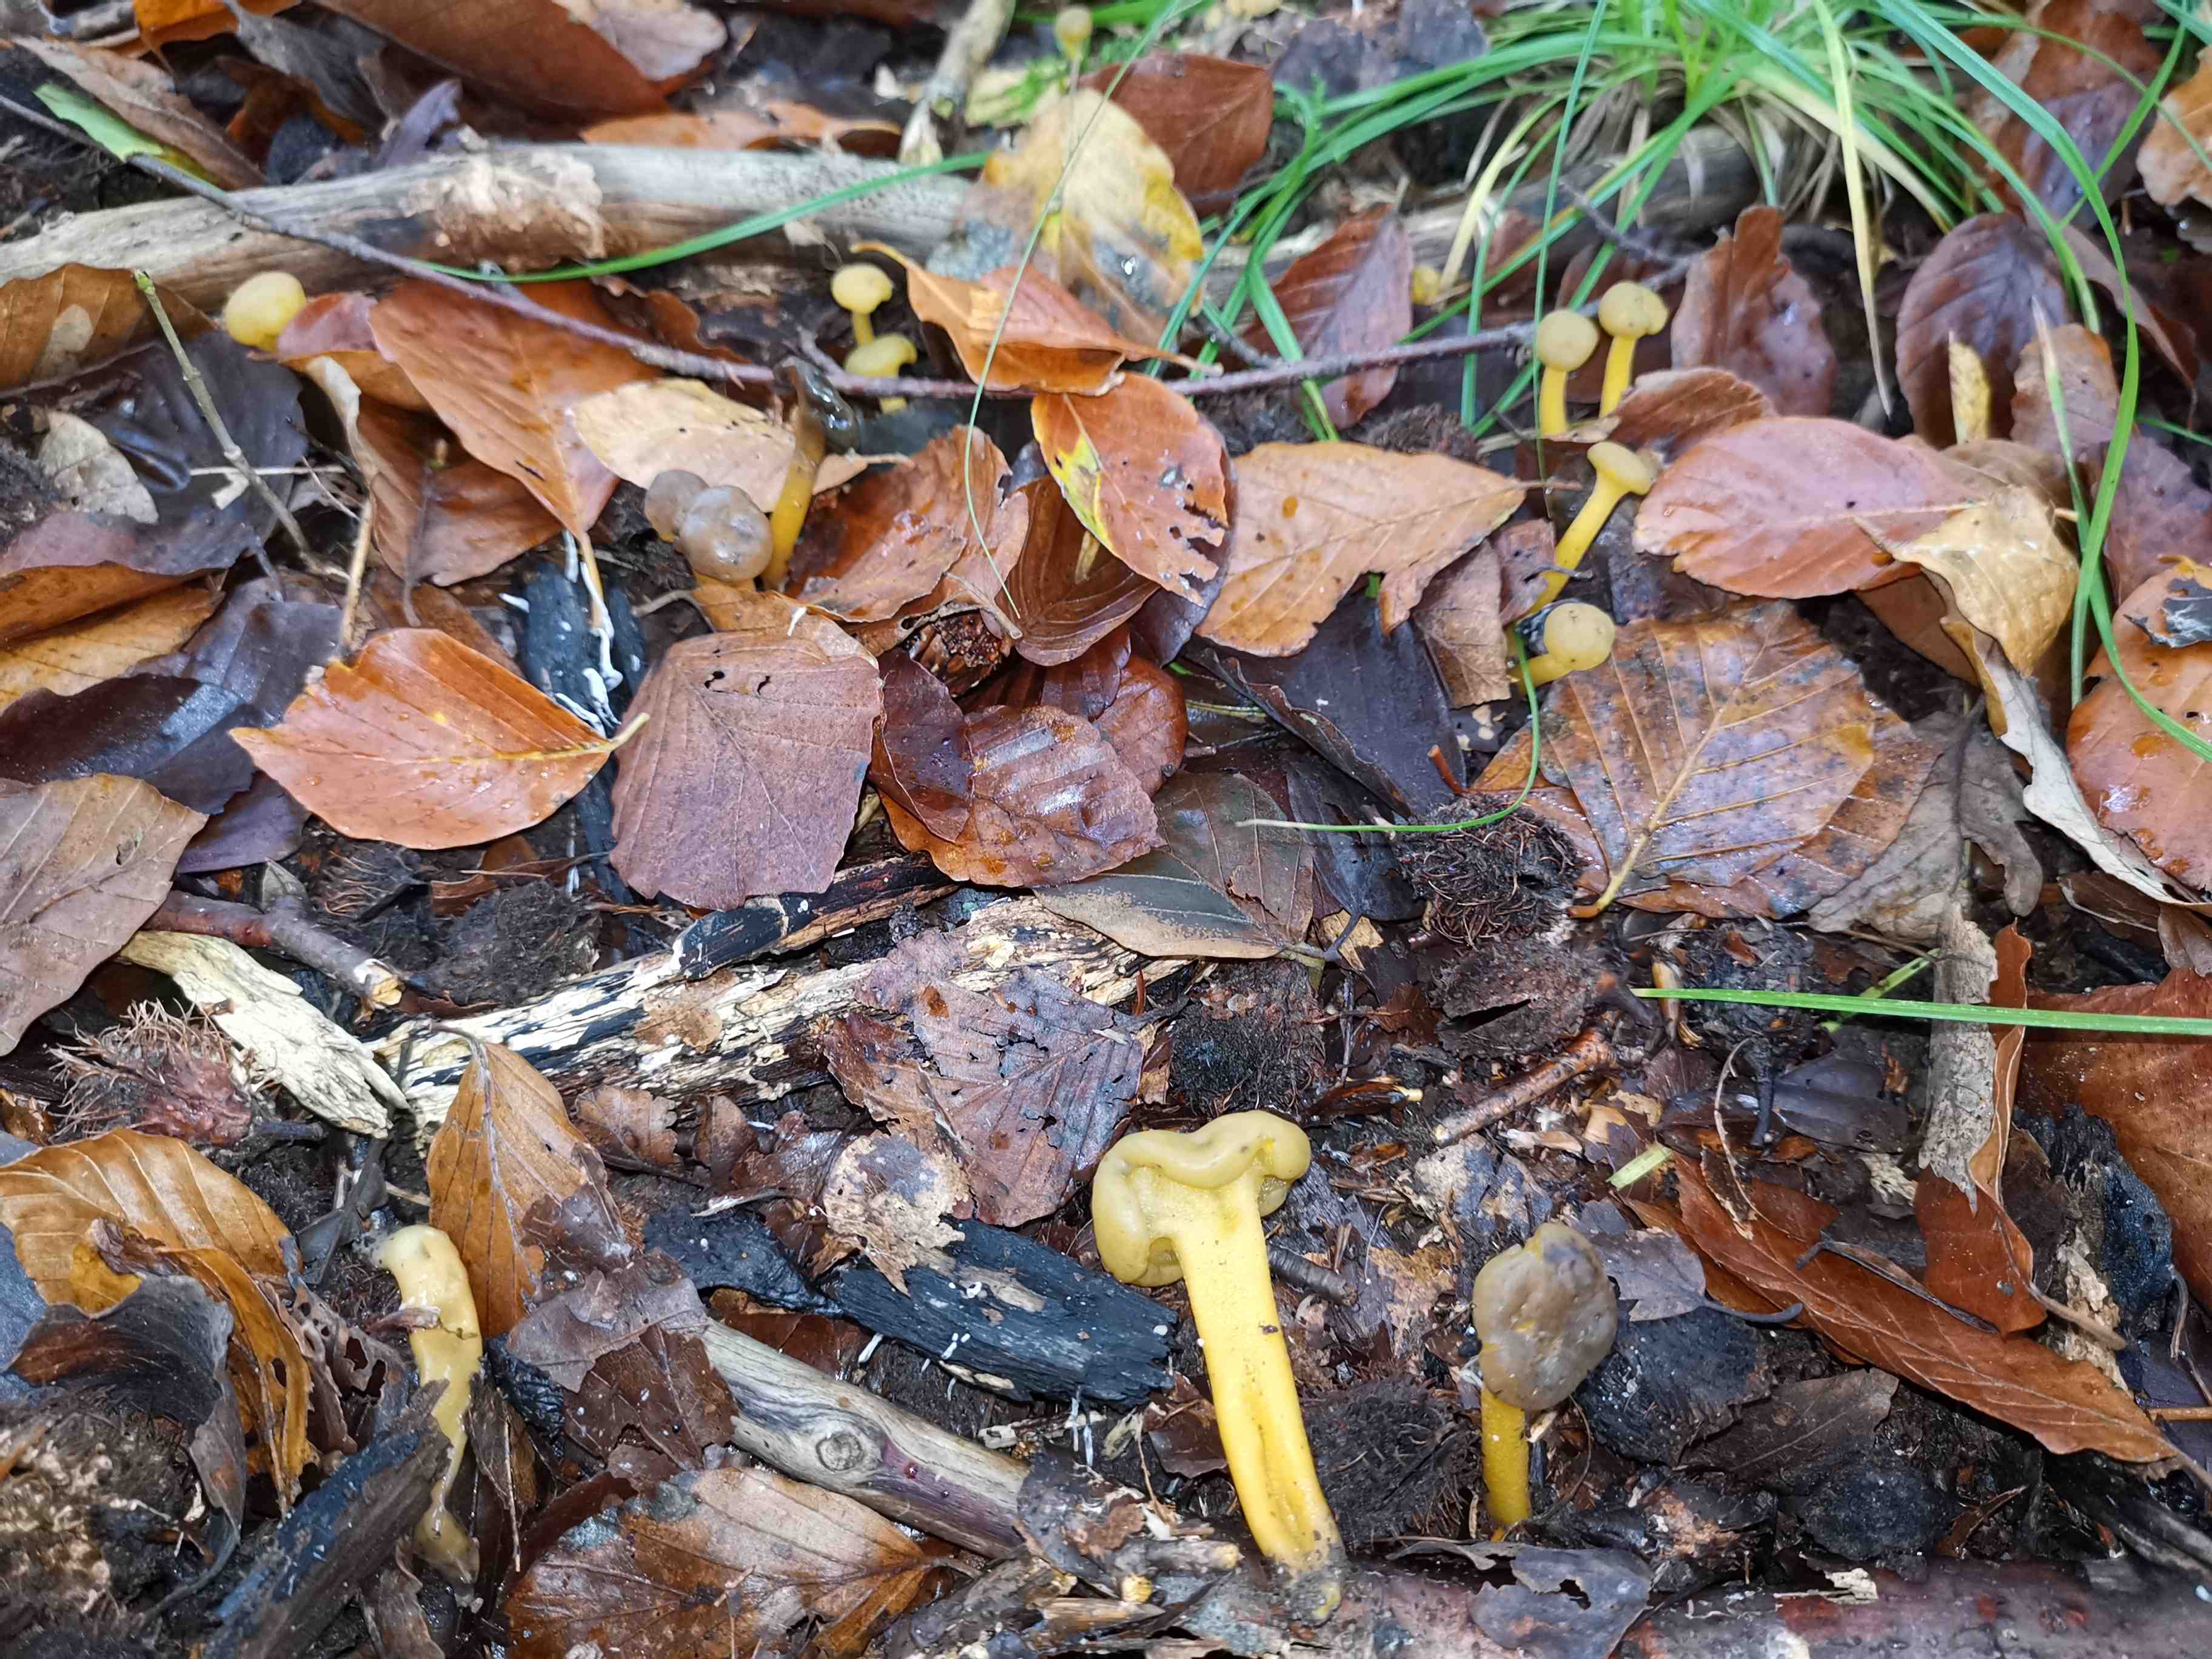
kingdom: Fungi
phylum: Ascomycota
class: Leotiomycetes
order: Leotiales
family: Leotiaceae
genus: Leotia
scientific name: Leotia lubrica
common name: ravsvamp
